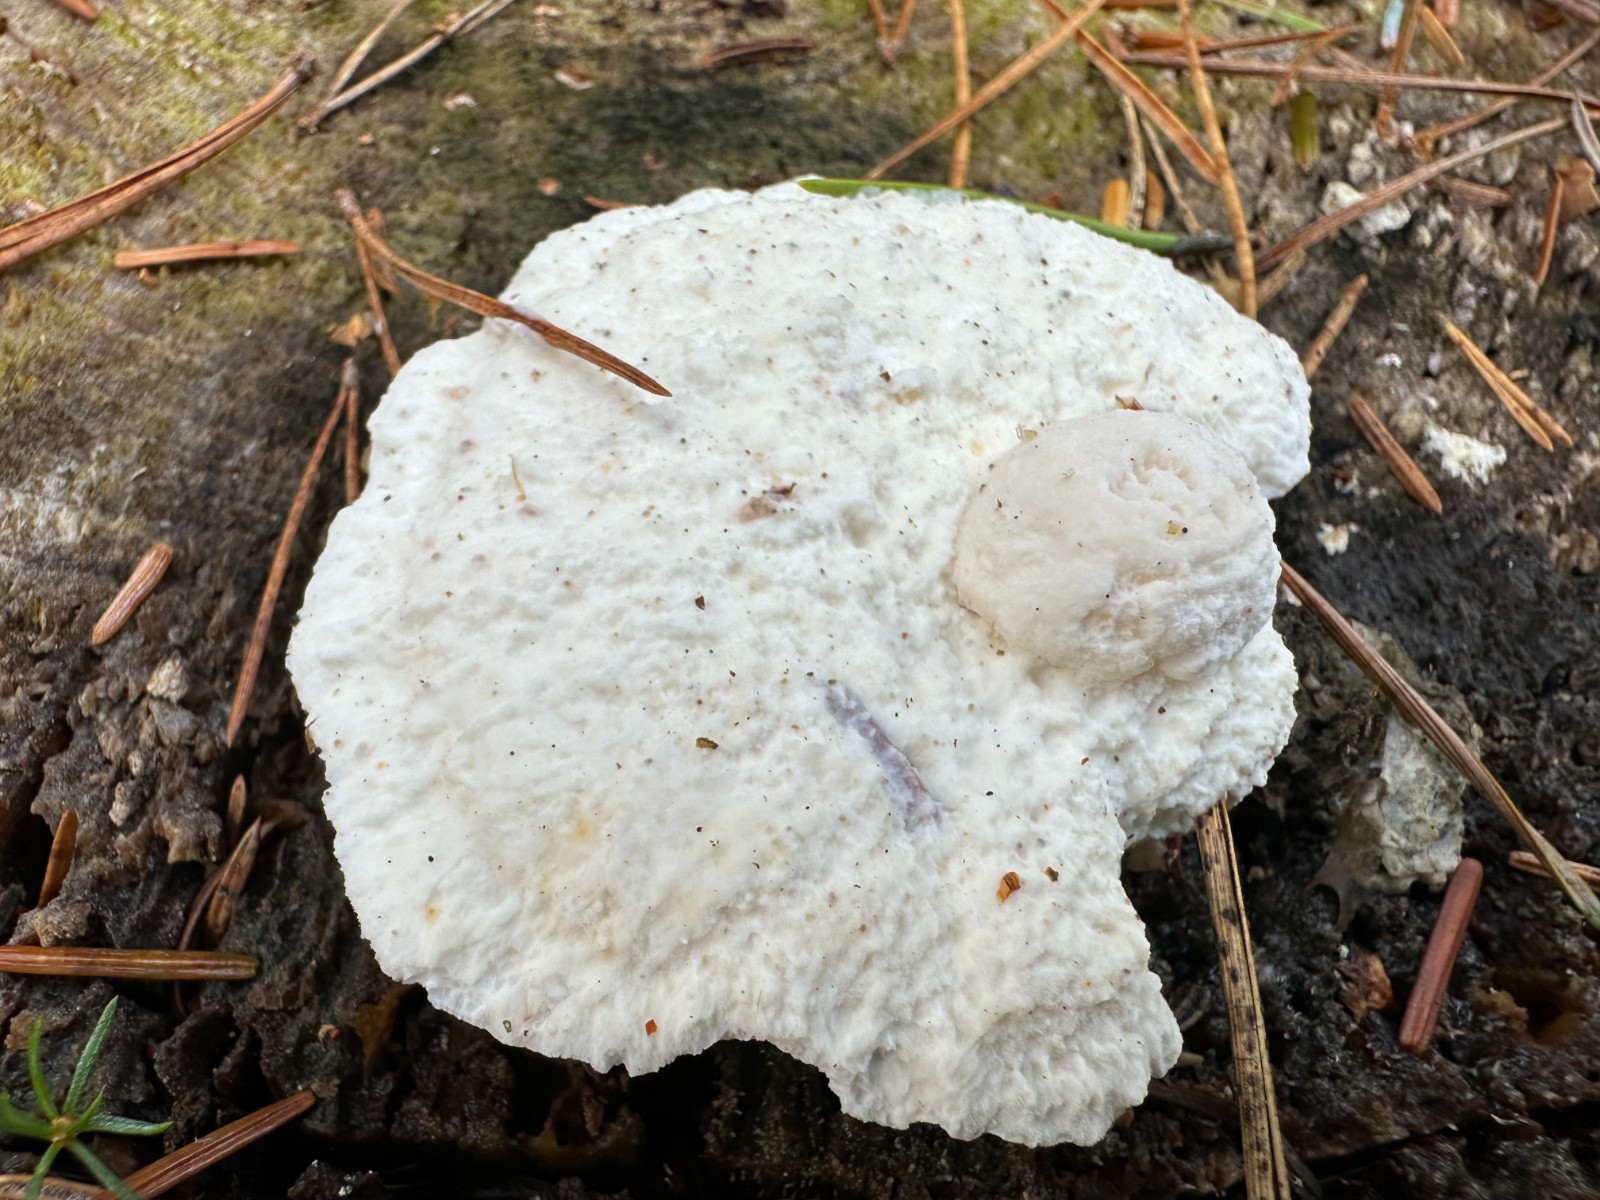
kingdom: Fungi
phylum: Basidiomycota
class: Agaricomycetes
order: Polyporales
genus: Amaropostia
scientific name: Amaropostia stiptica
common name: bitter kødporesvamp
